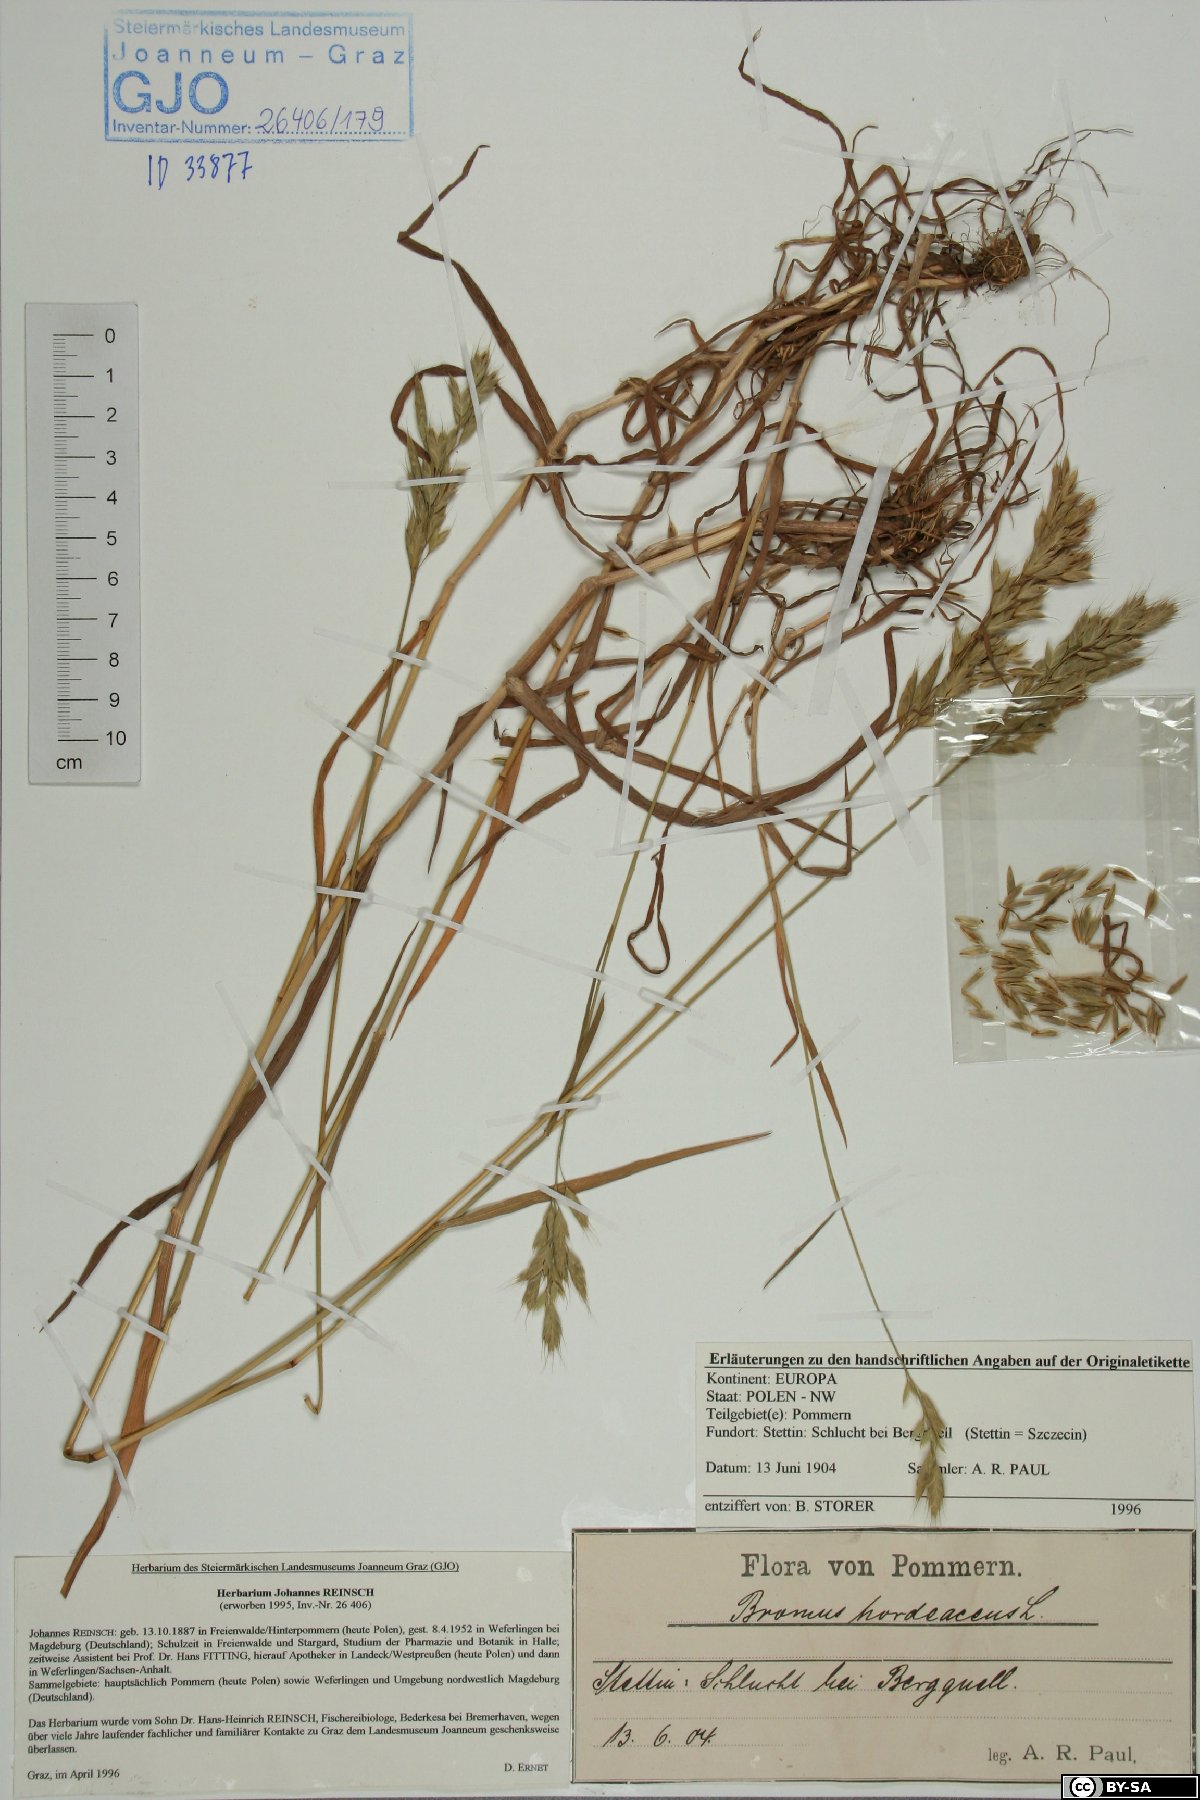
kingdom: Plantae
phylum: Tracheophyta
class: Liliopsida
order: Poales
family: Poaceae
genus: Bromus
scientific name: Bromus hordeaceus
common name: Soft brome
